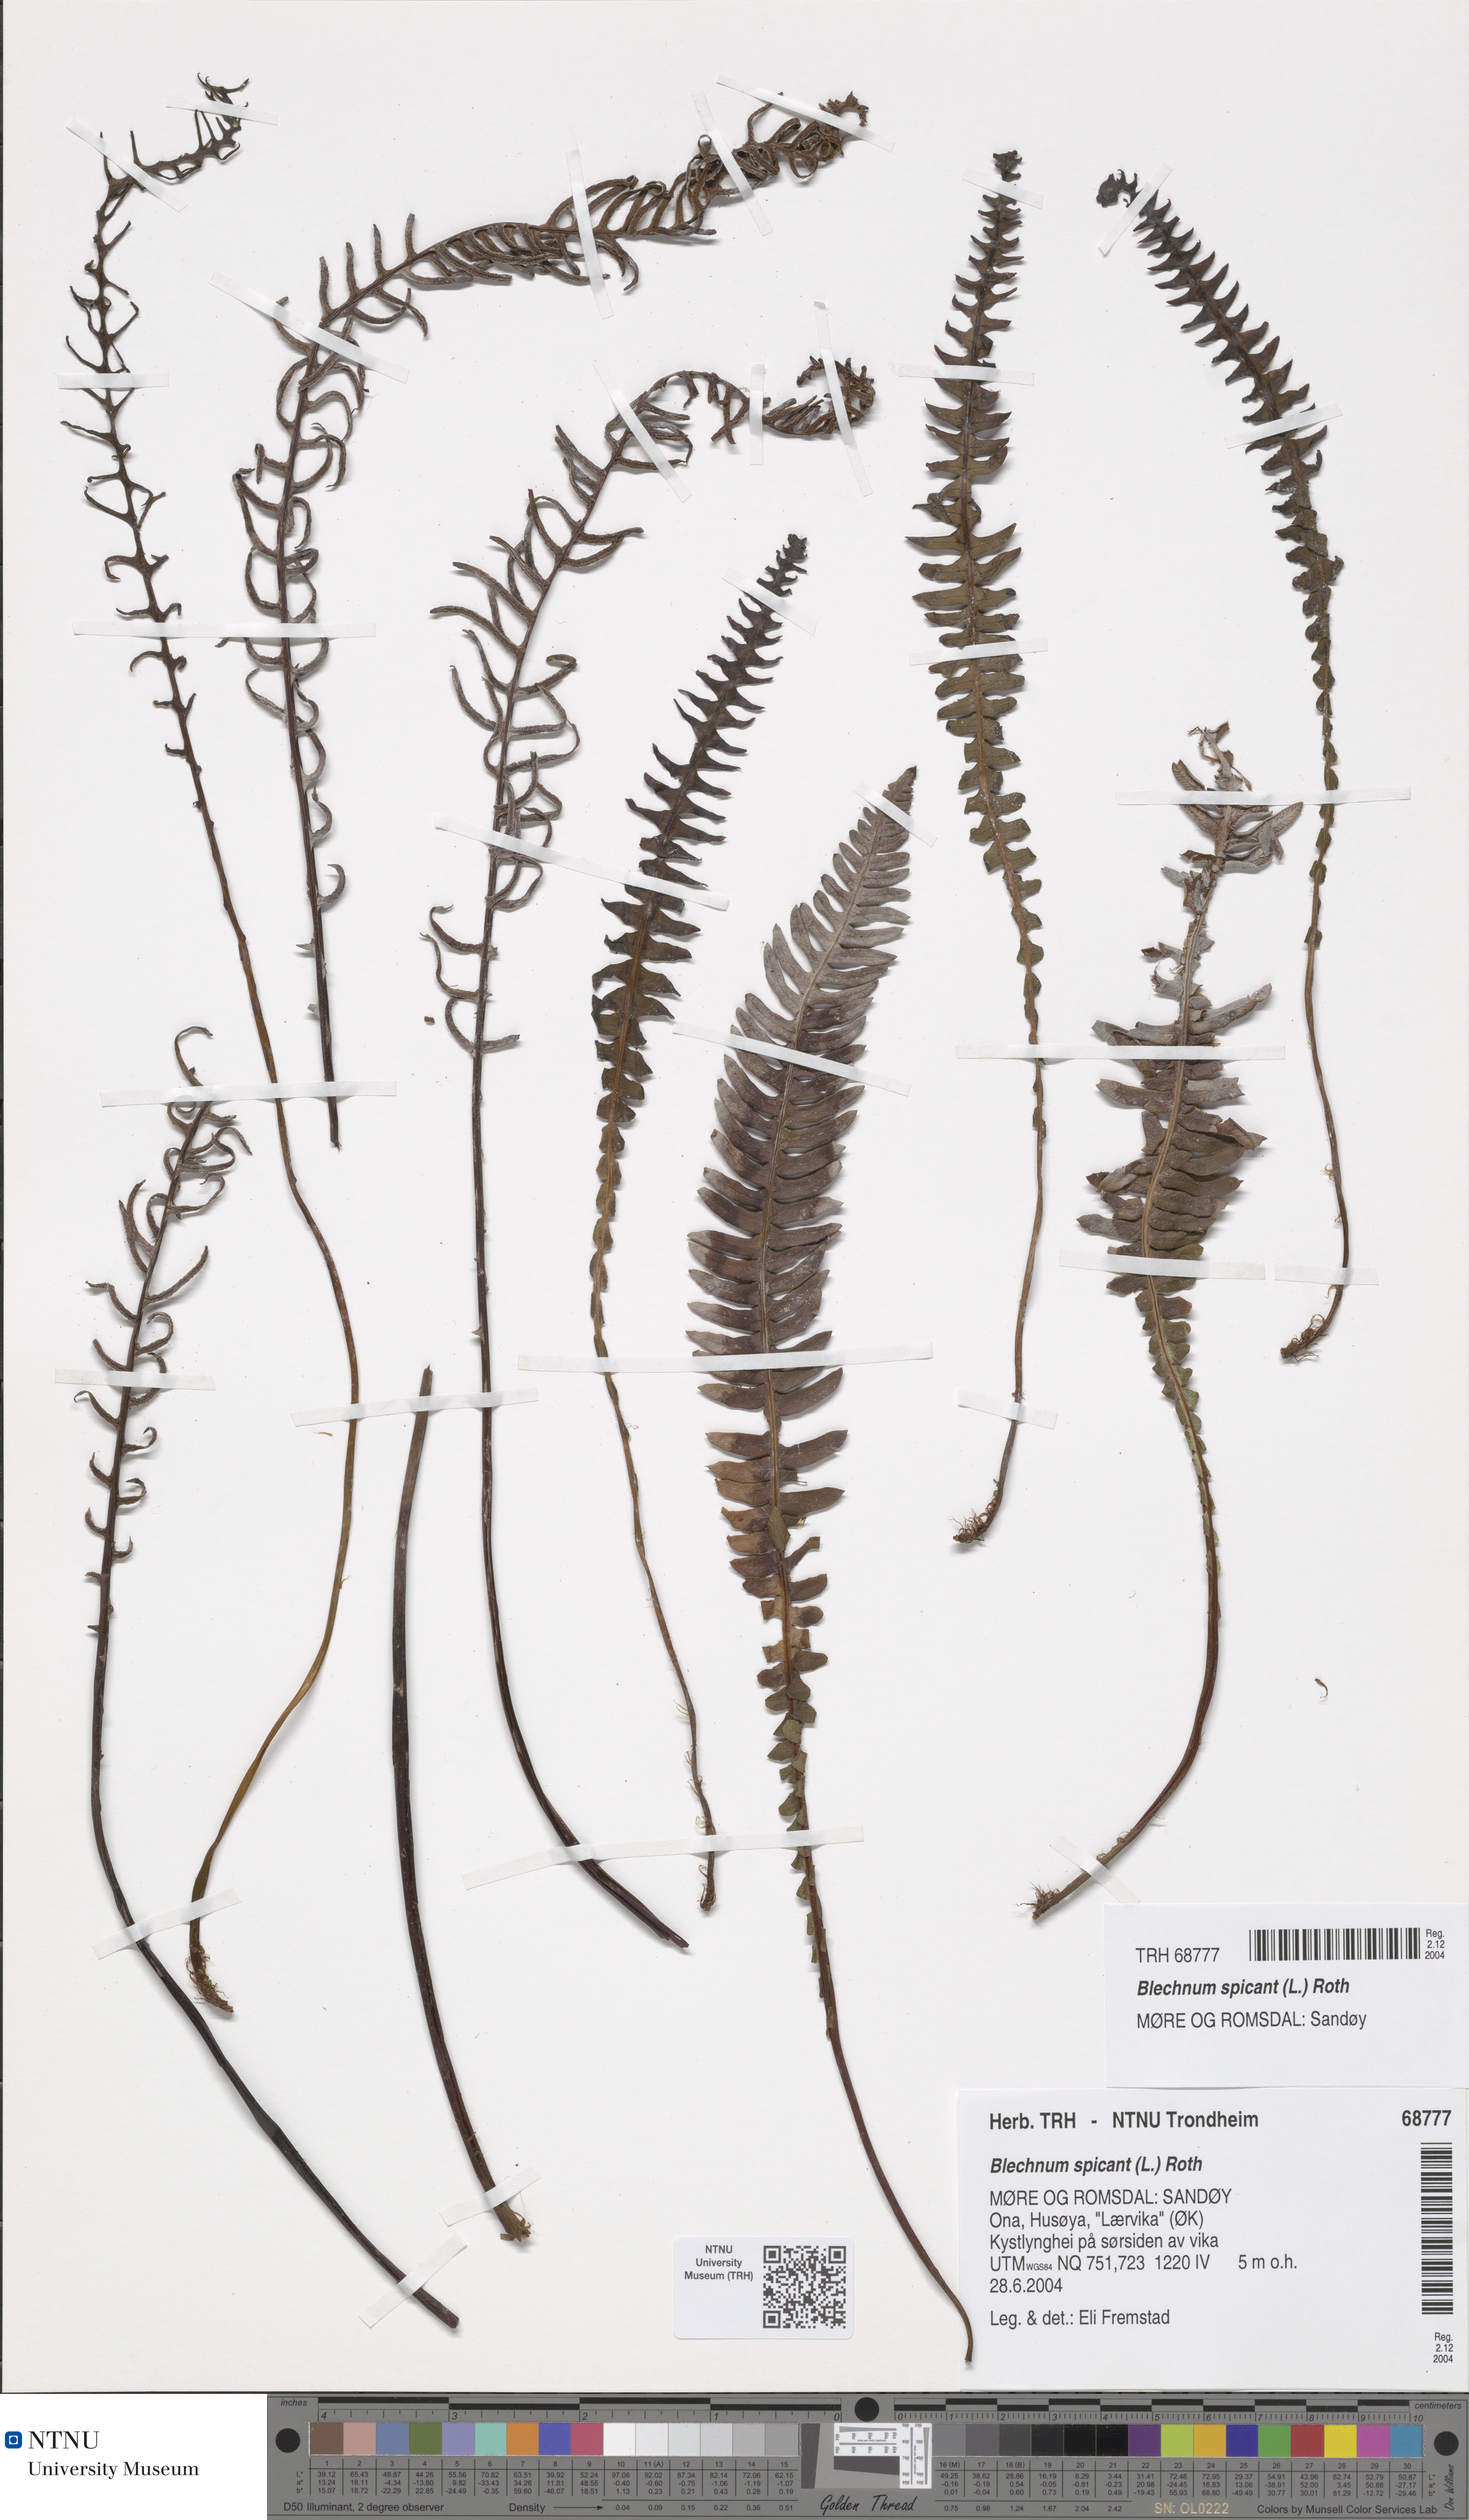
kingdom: Plantae
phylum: Tracheophyta
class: Polypodiopsida
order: Polypodiales
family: Blechnaceae
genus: Struthiopteris
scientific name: Struthiopteris spicant
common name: Deer fern
